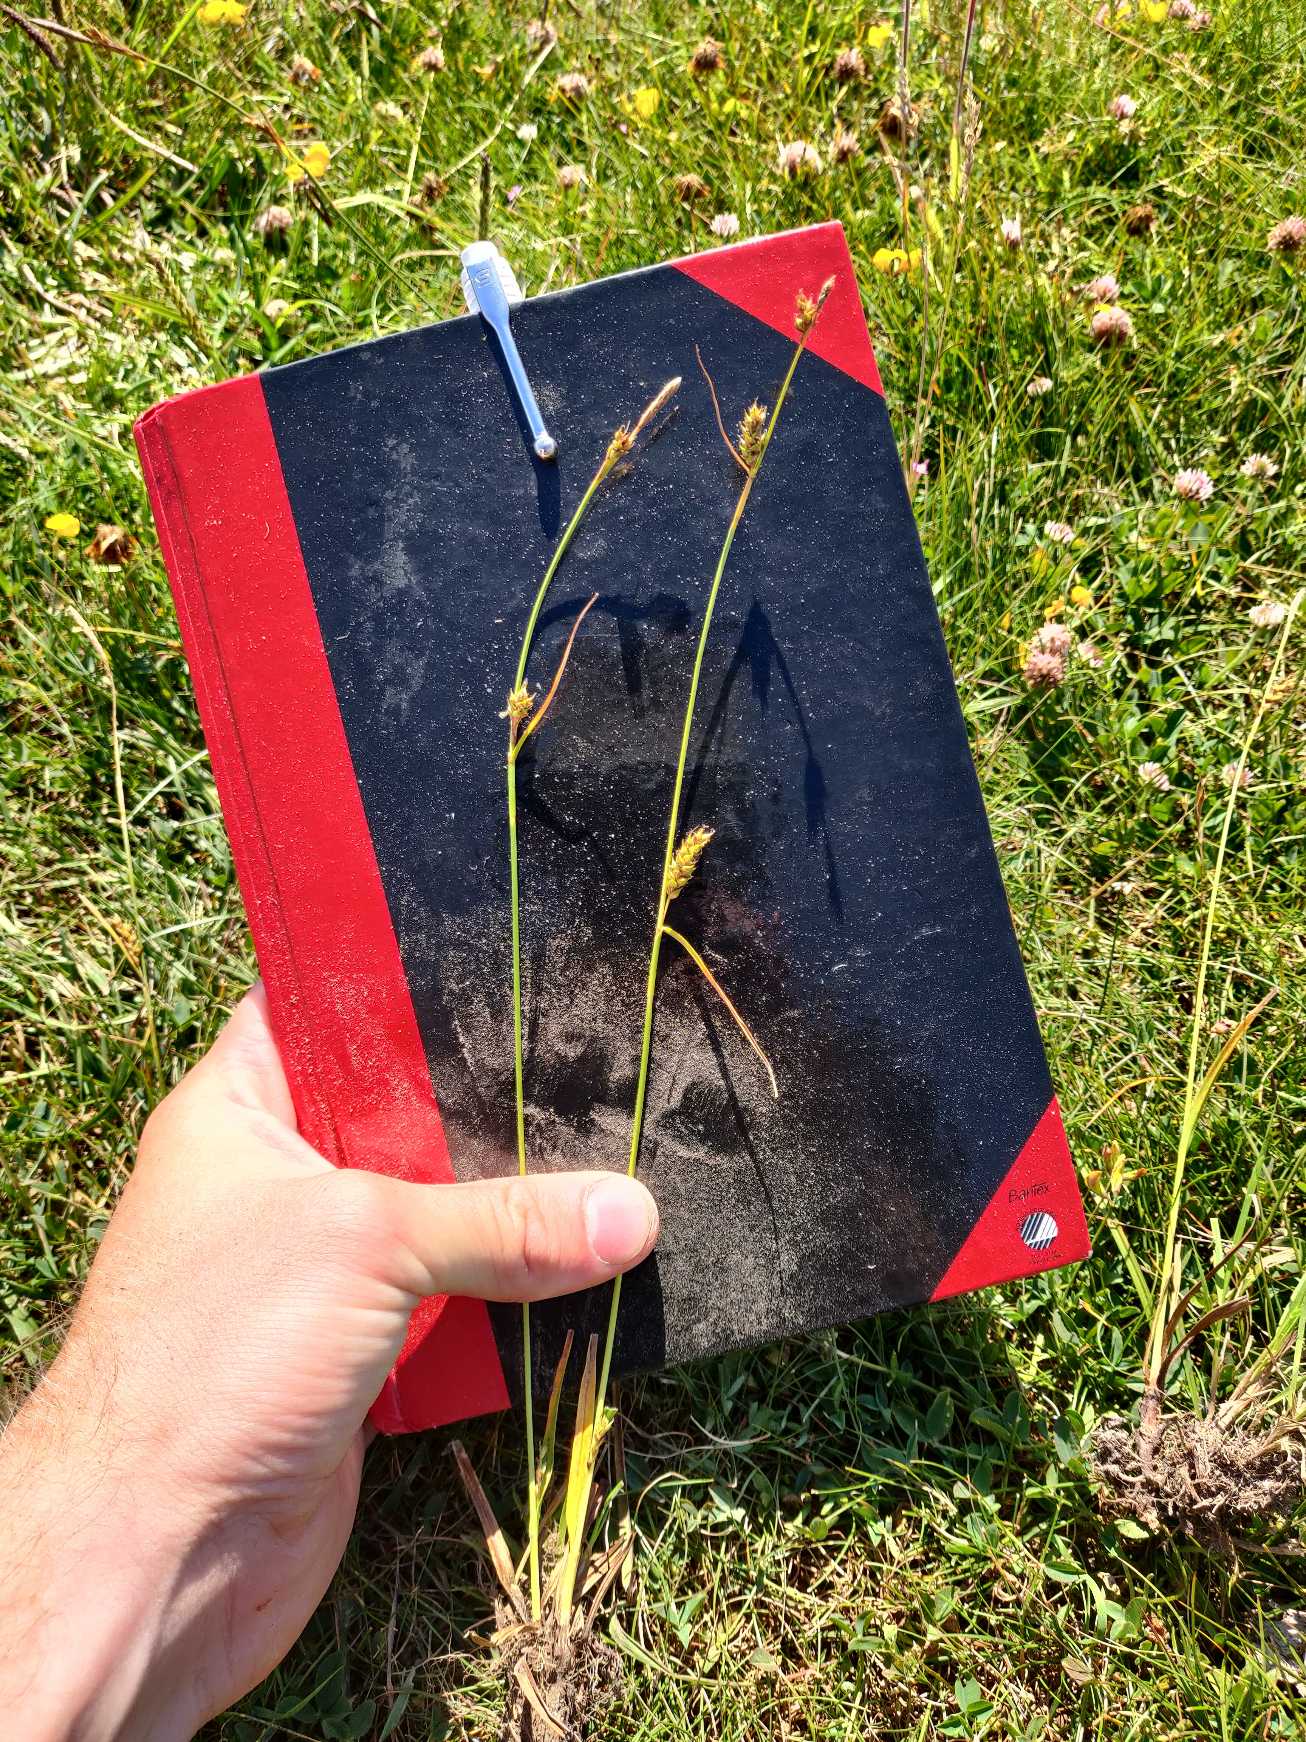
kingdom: Plantae
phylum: Tracheophyta
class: Liliopsida
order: Poales
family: Cyperaceae
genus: Carex
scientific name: Carex distans
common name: Fjernakset star
